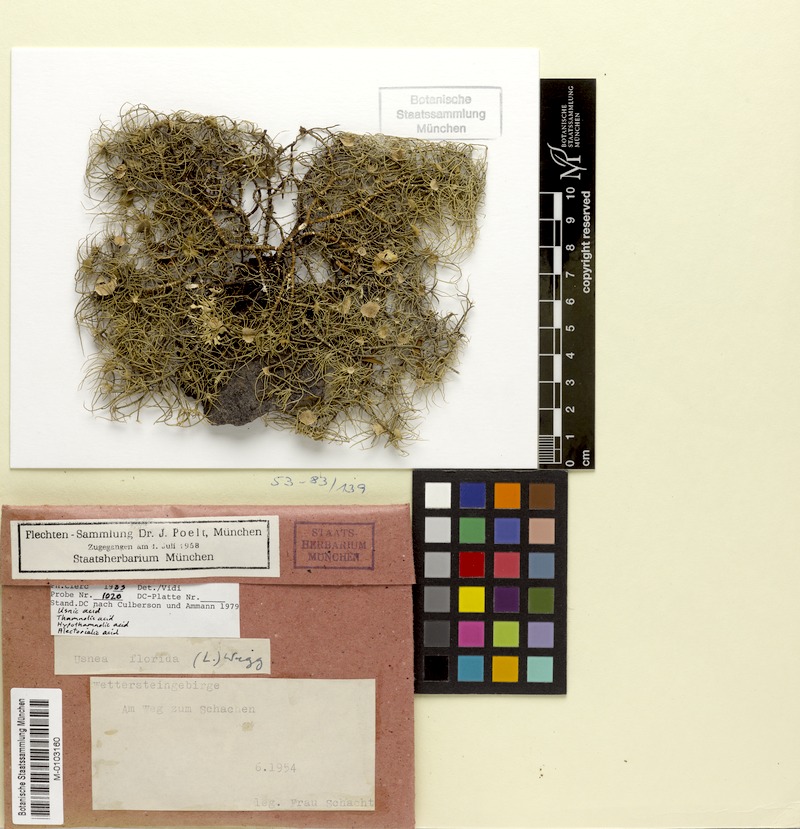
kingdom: Fungi
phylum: Ascomycota
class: Lecanoromycetes
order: Lecanorales
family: Parmeliaceae
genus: Usnea
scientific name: Usnea florida
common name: Witches' whiskers lichen
